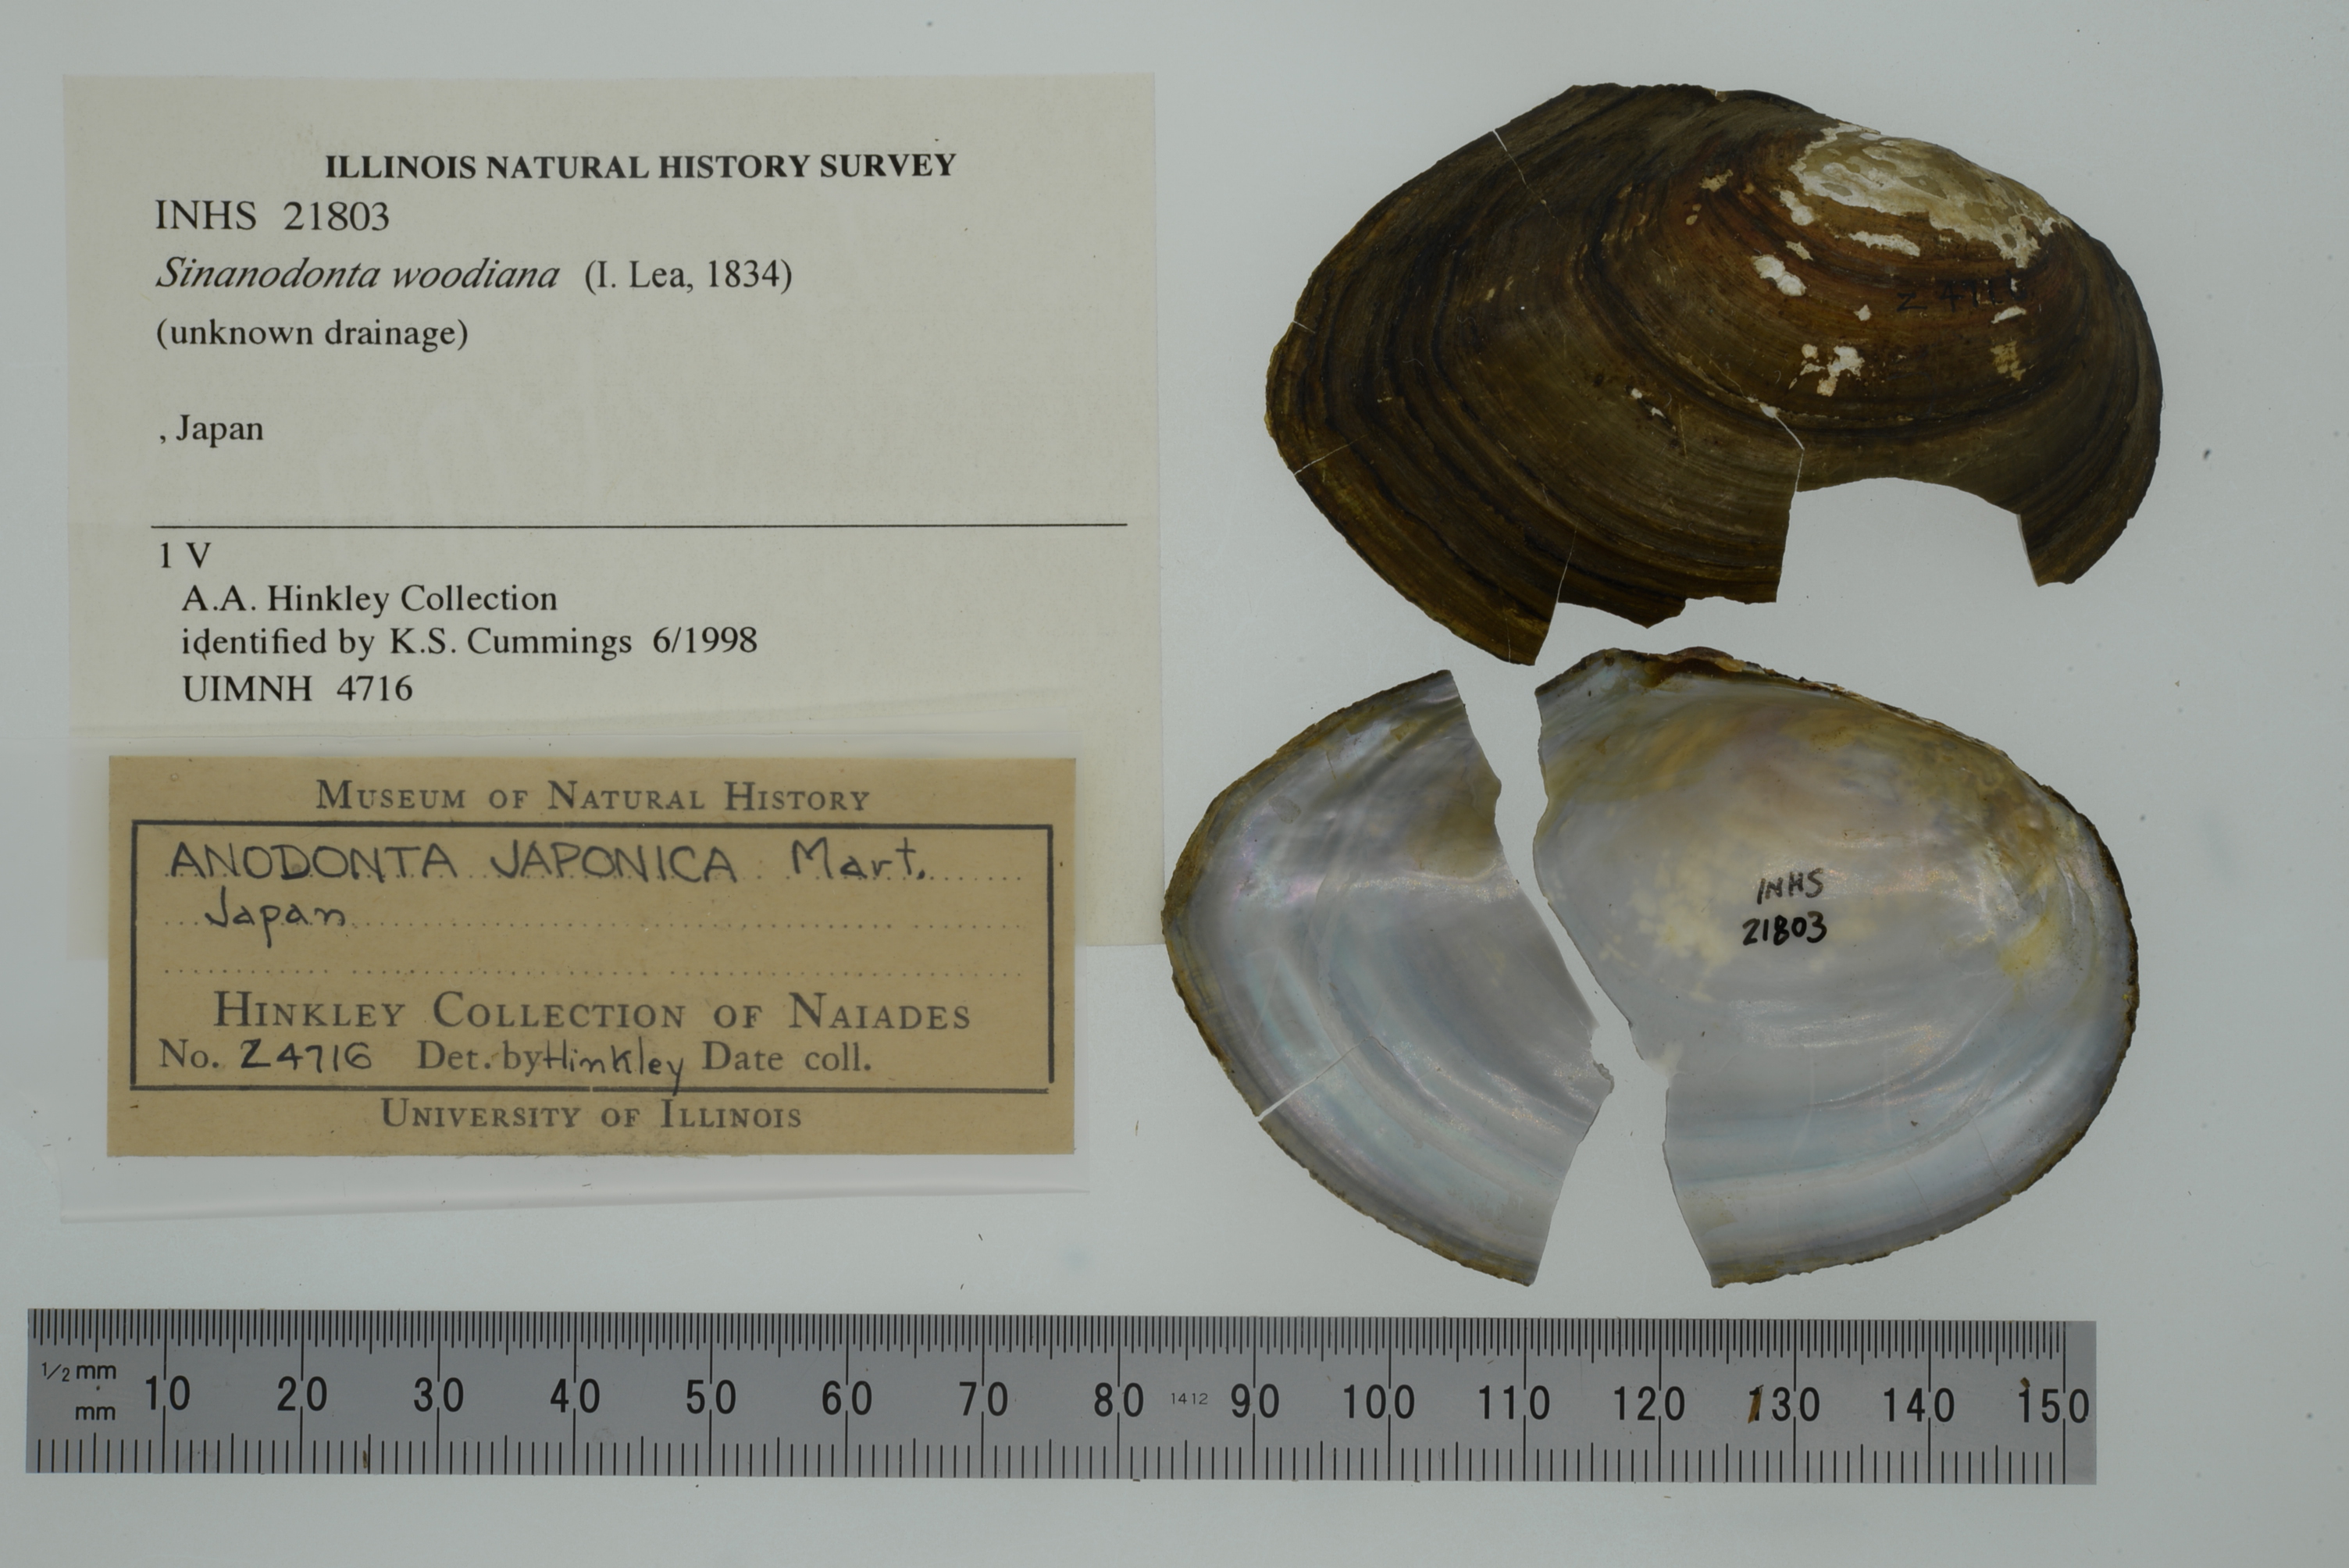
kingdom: Animalia
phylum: Mollusca
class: Bivalvia
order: Unionida
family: Unionidae
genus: Sinanodonta
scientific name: Sinanodonta woodiana
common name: Chinese pond mussel
